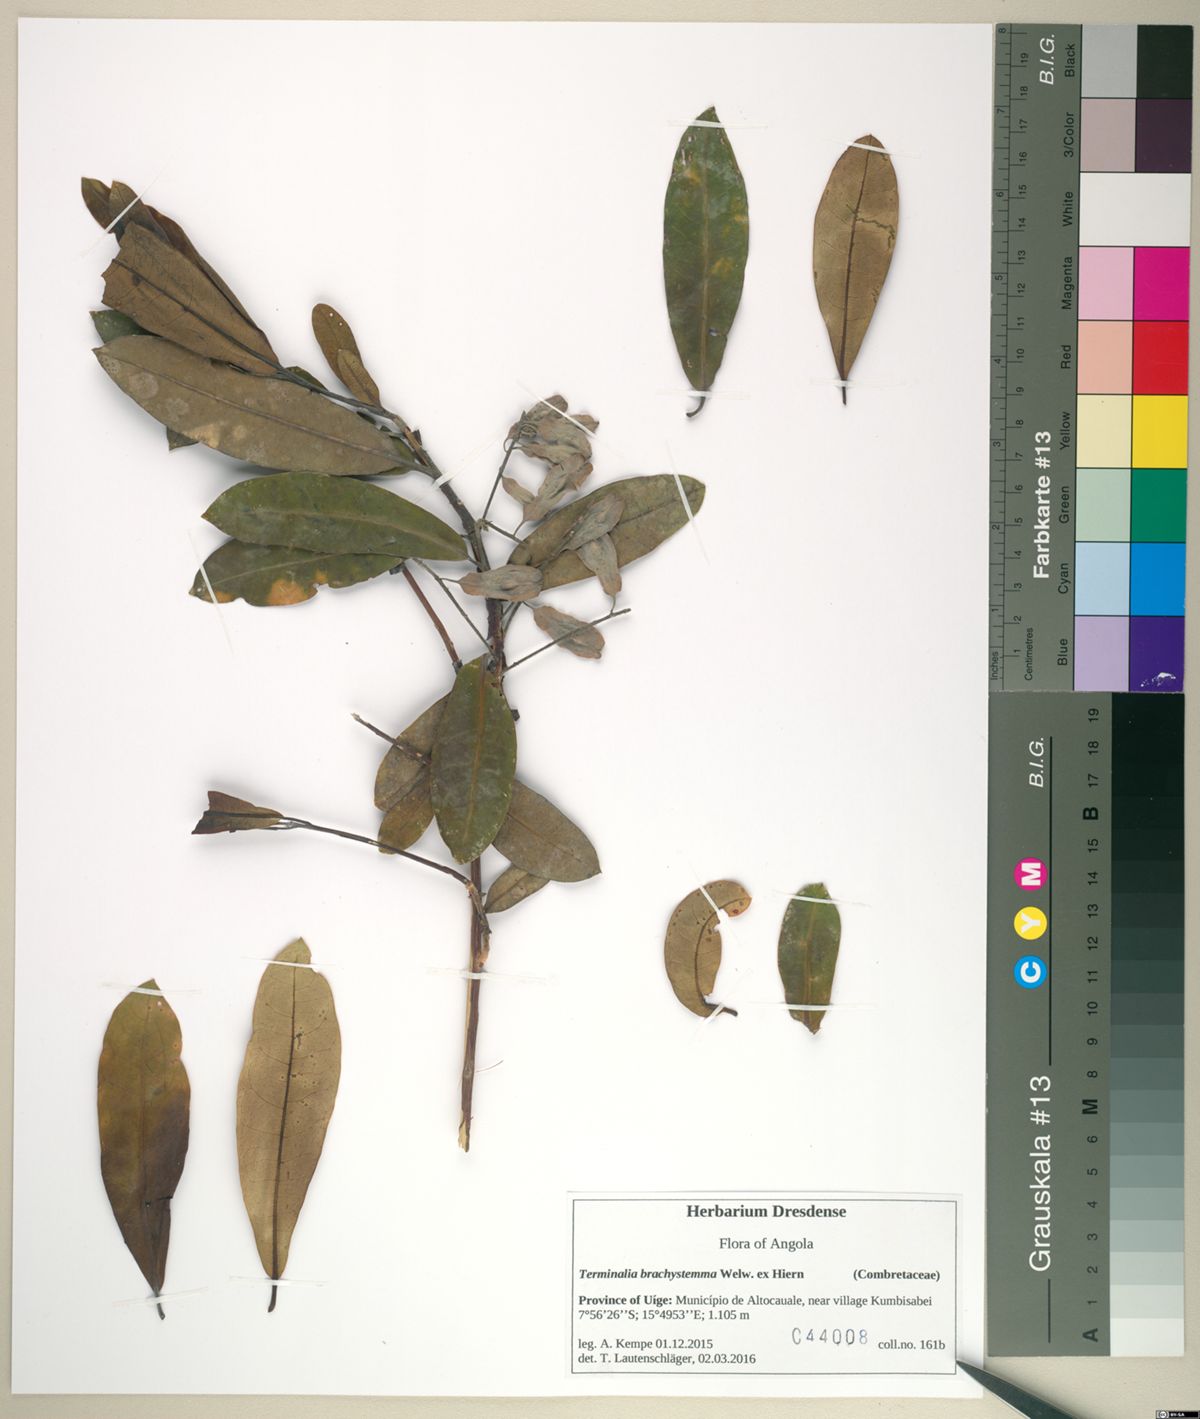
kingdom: Plantae
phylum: Tracheophyta
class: Magnoliopsida
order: Myrtales
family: Combretaceae
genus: Terminalia
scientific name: Terminalia brachystemma
